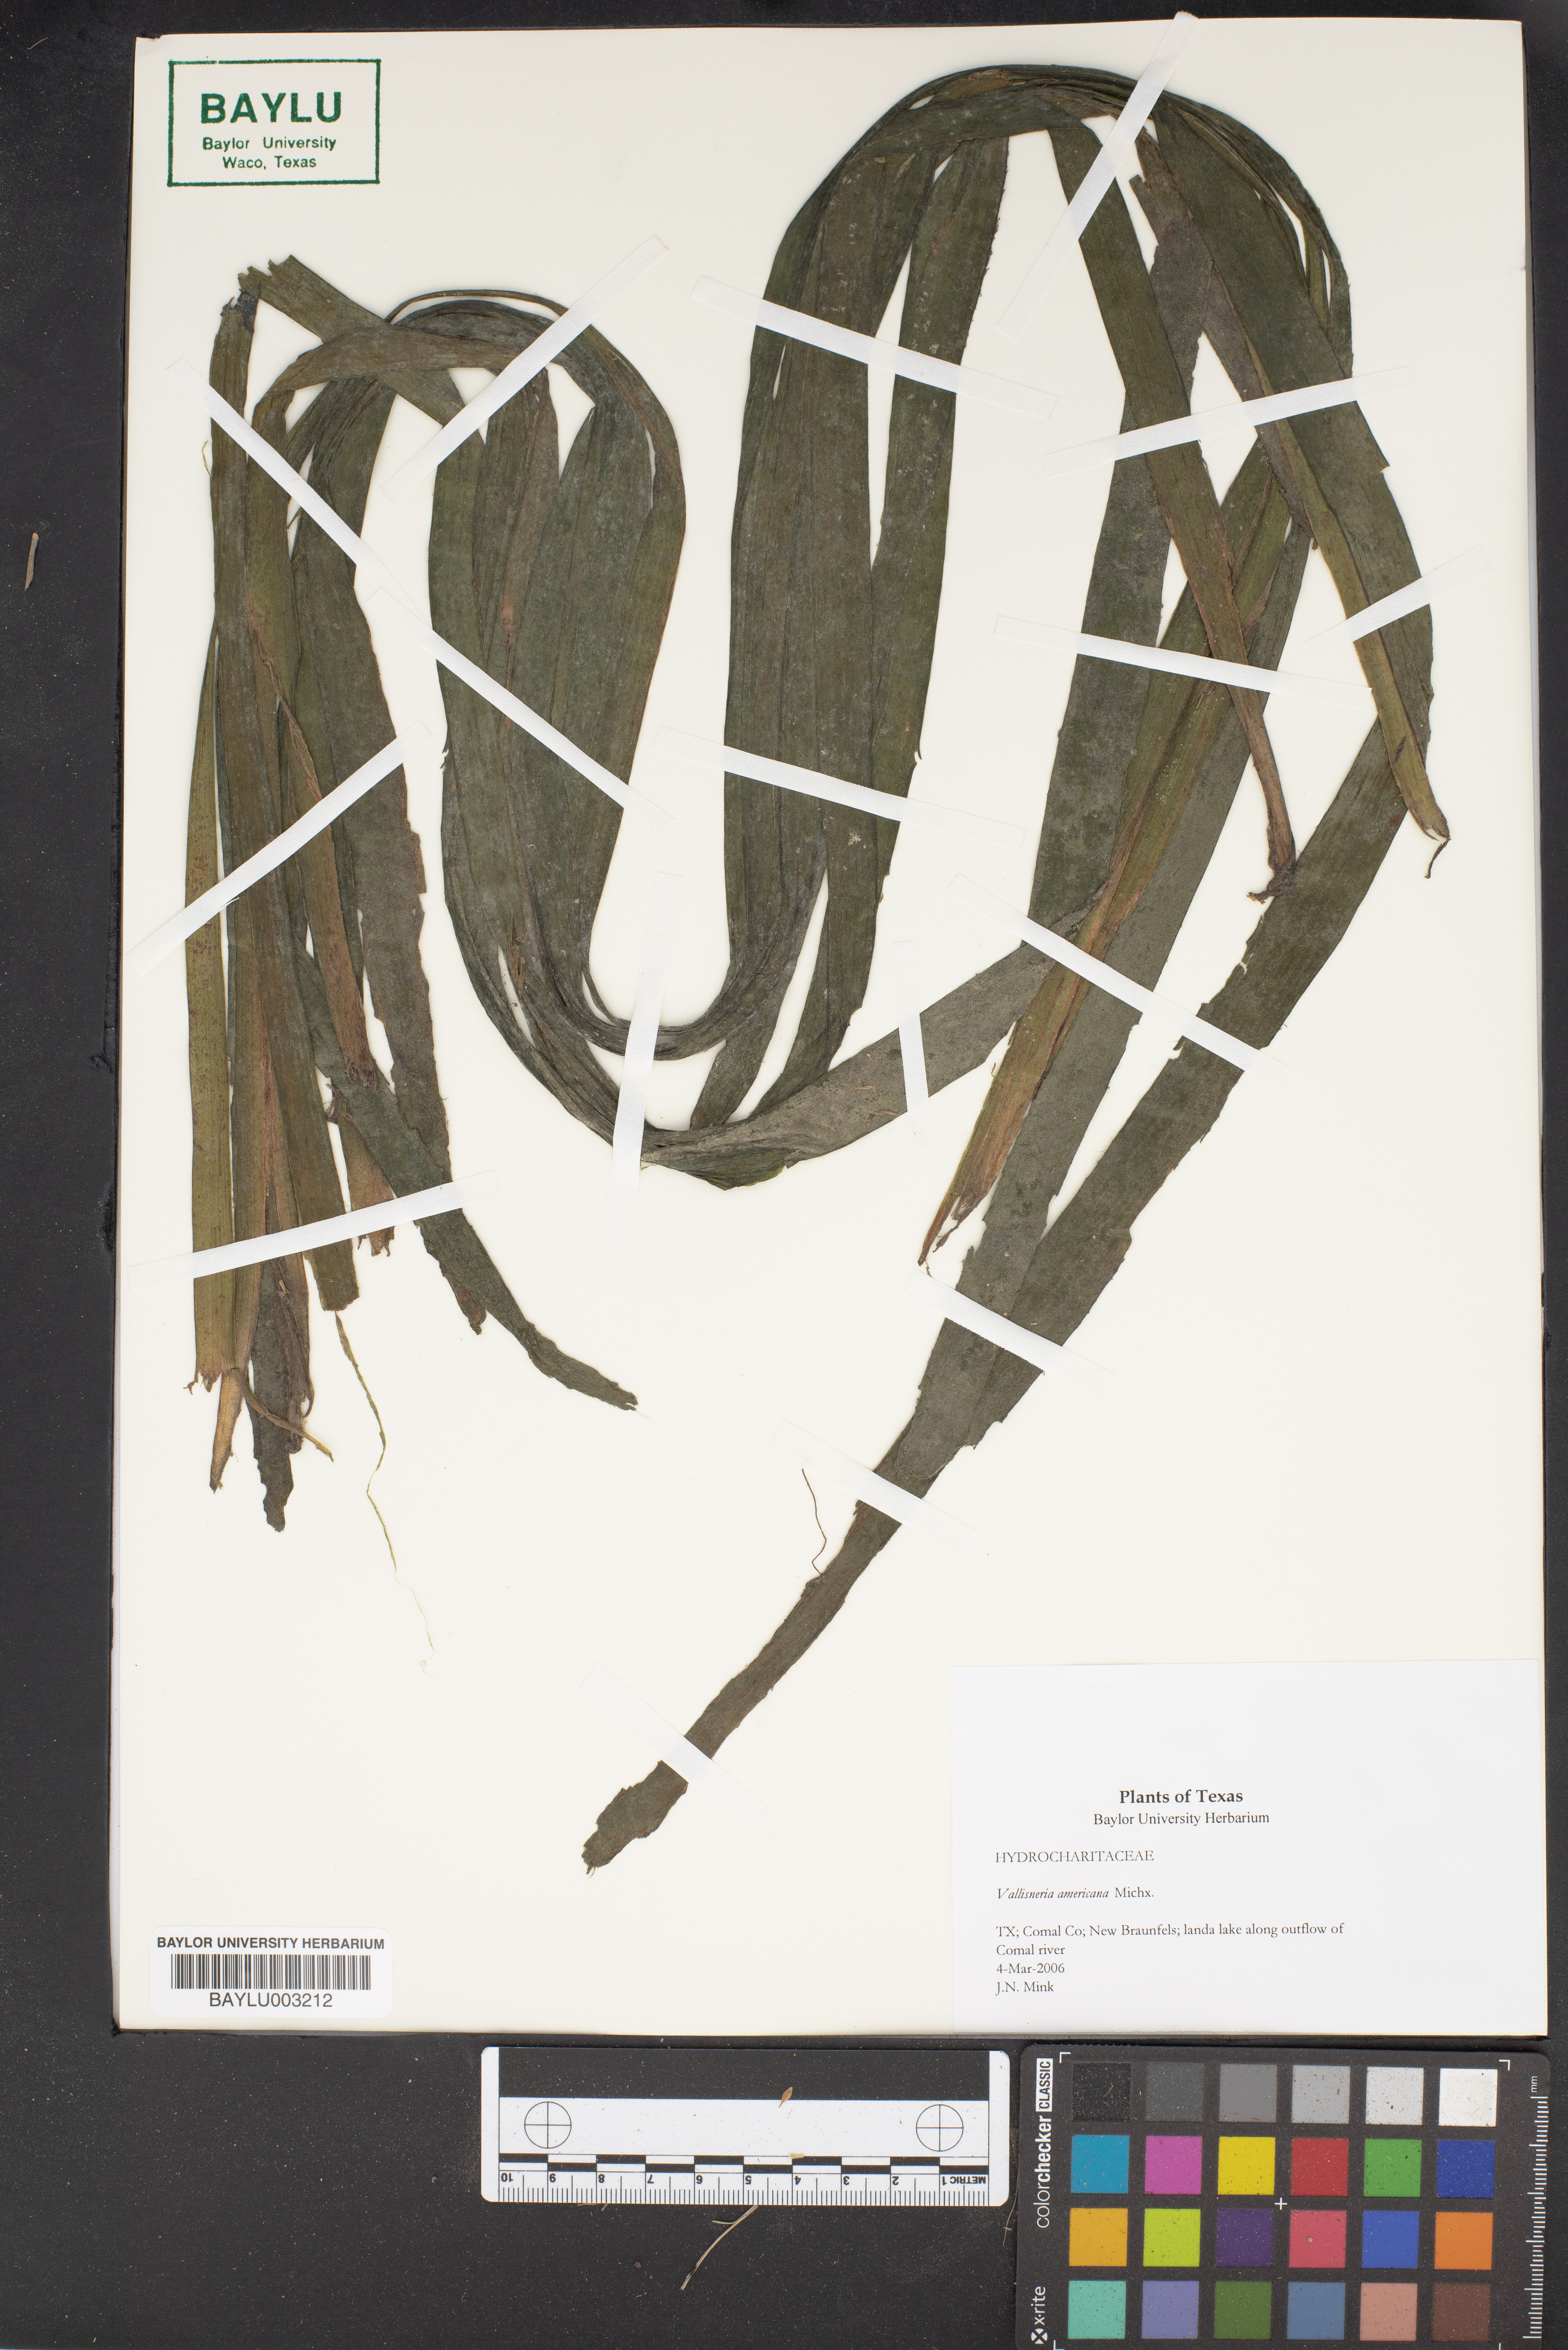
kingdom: Plantae
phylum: Tracheophyta
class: Liliopsida
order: Alismatales
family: Hydrocharitaceae
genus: Vallisneria
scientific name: Vallisneria americana
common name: American eelgrass
